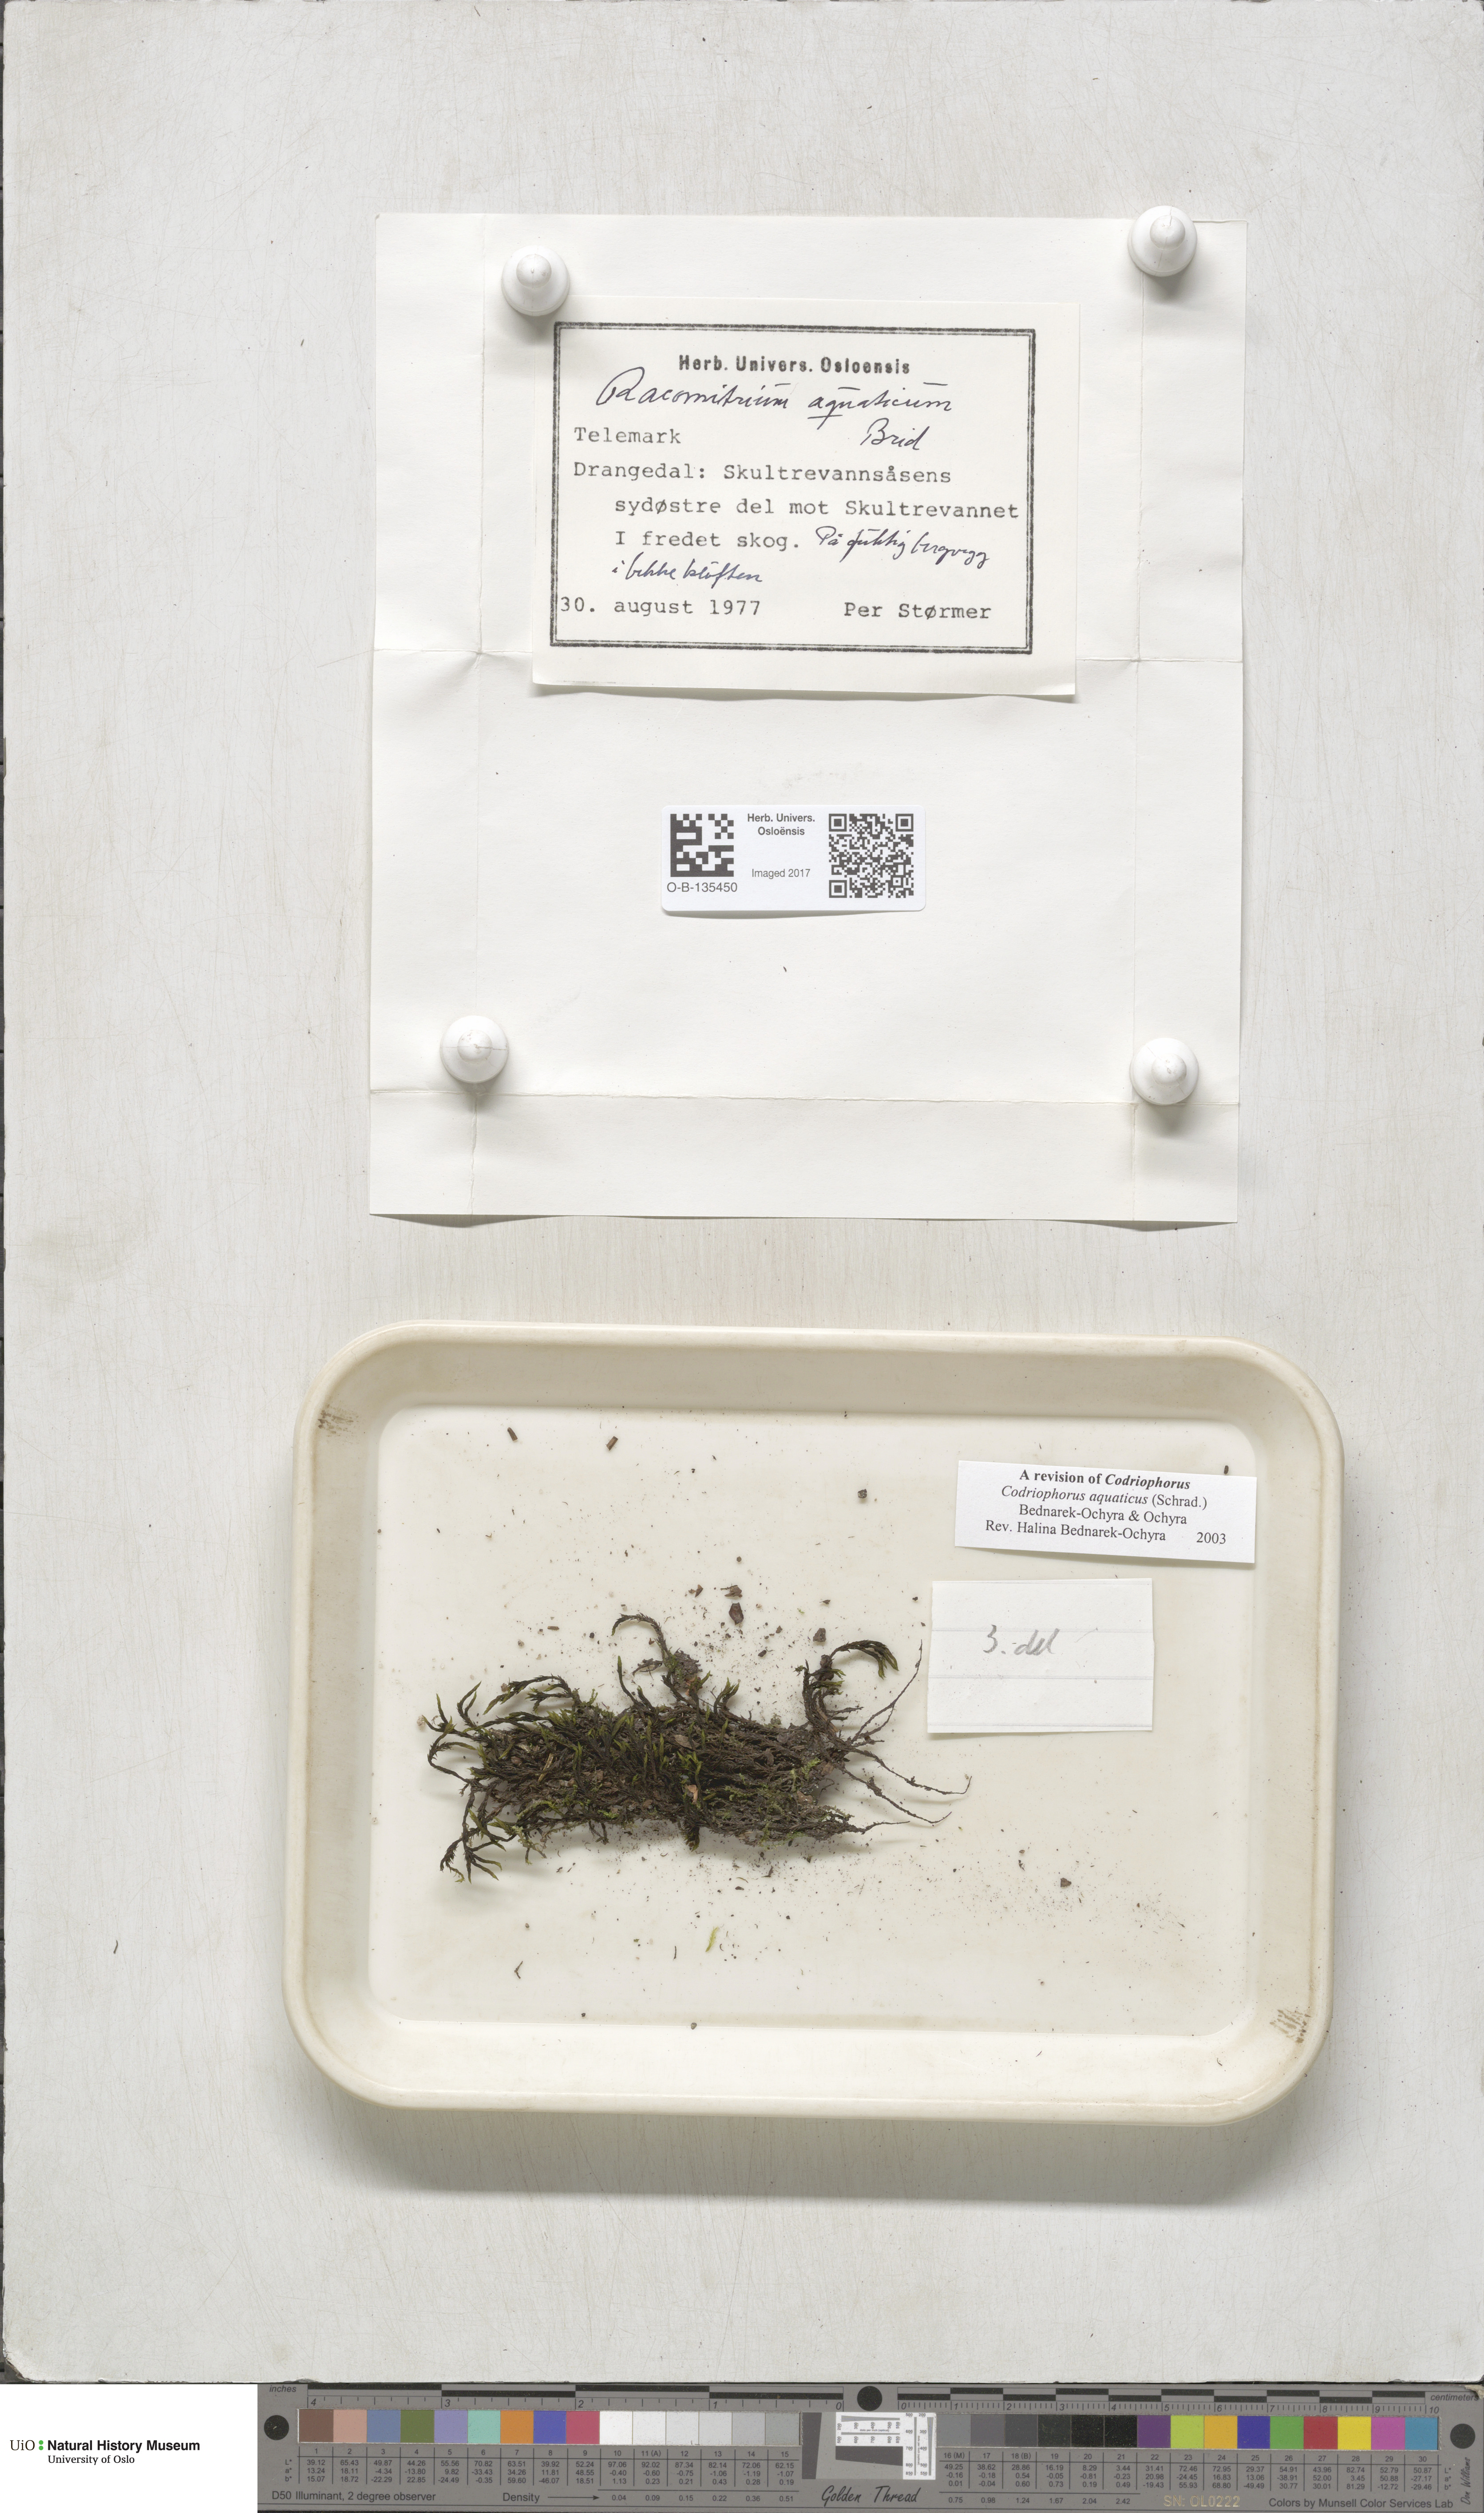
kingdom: Plantae
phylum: Bryophyta
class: Bryopsida
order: Grimmiales
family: Grimmiaceae
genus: Codriophorus
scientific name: Codriophorus aquaticus
